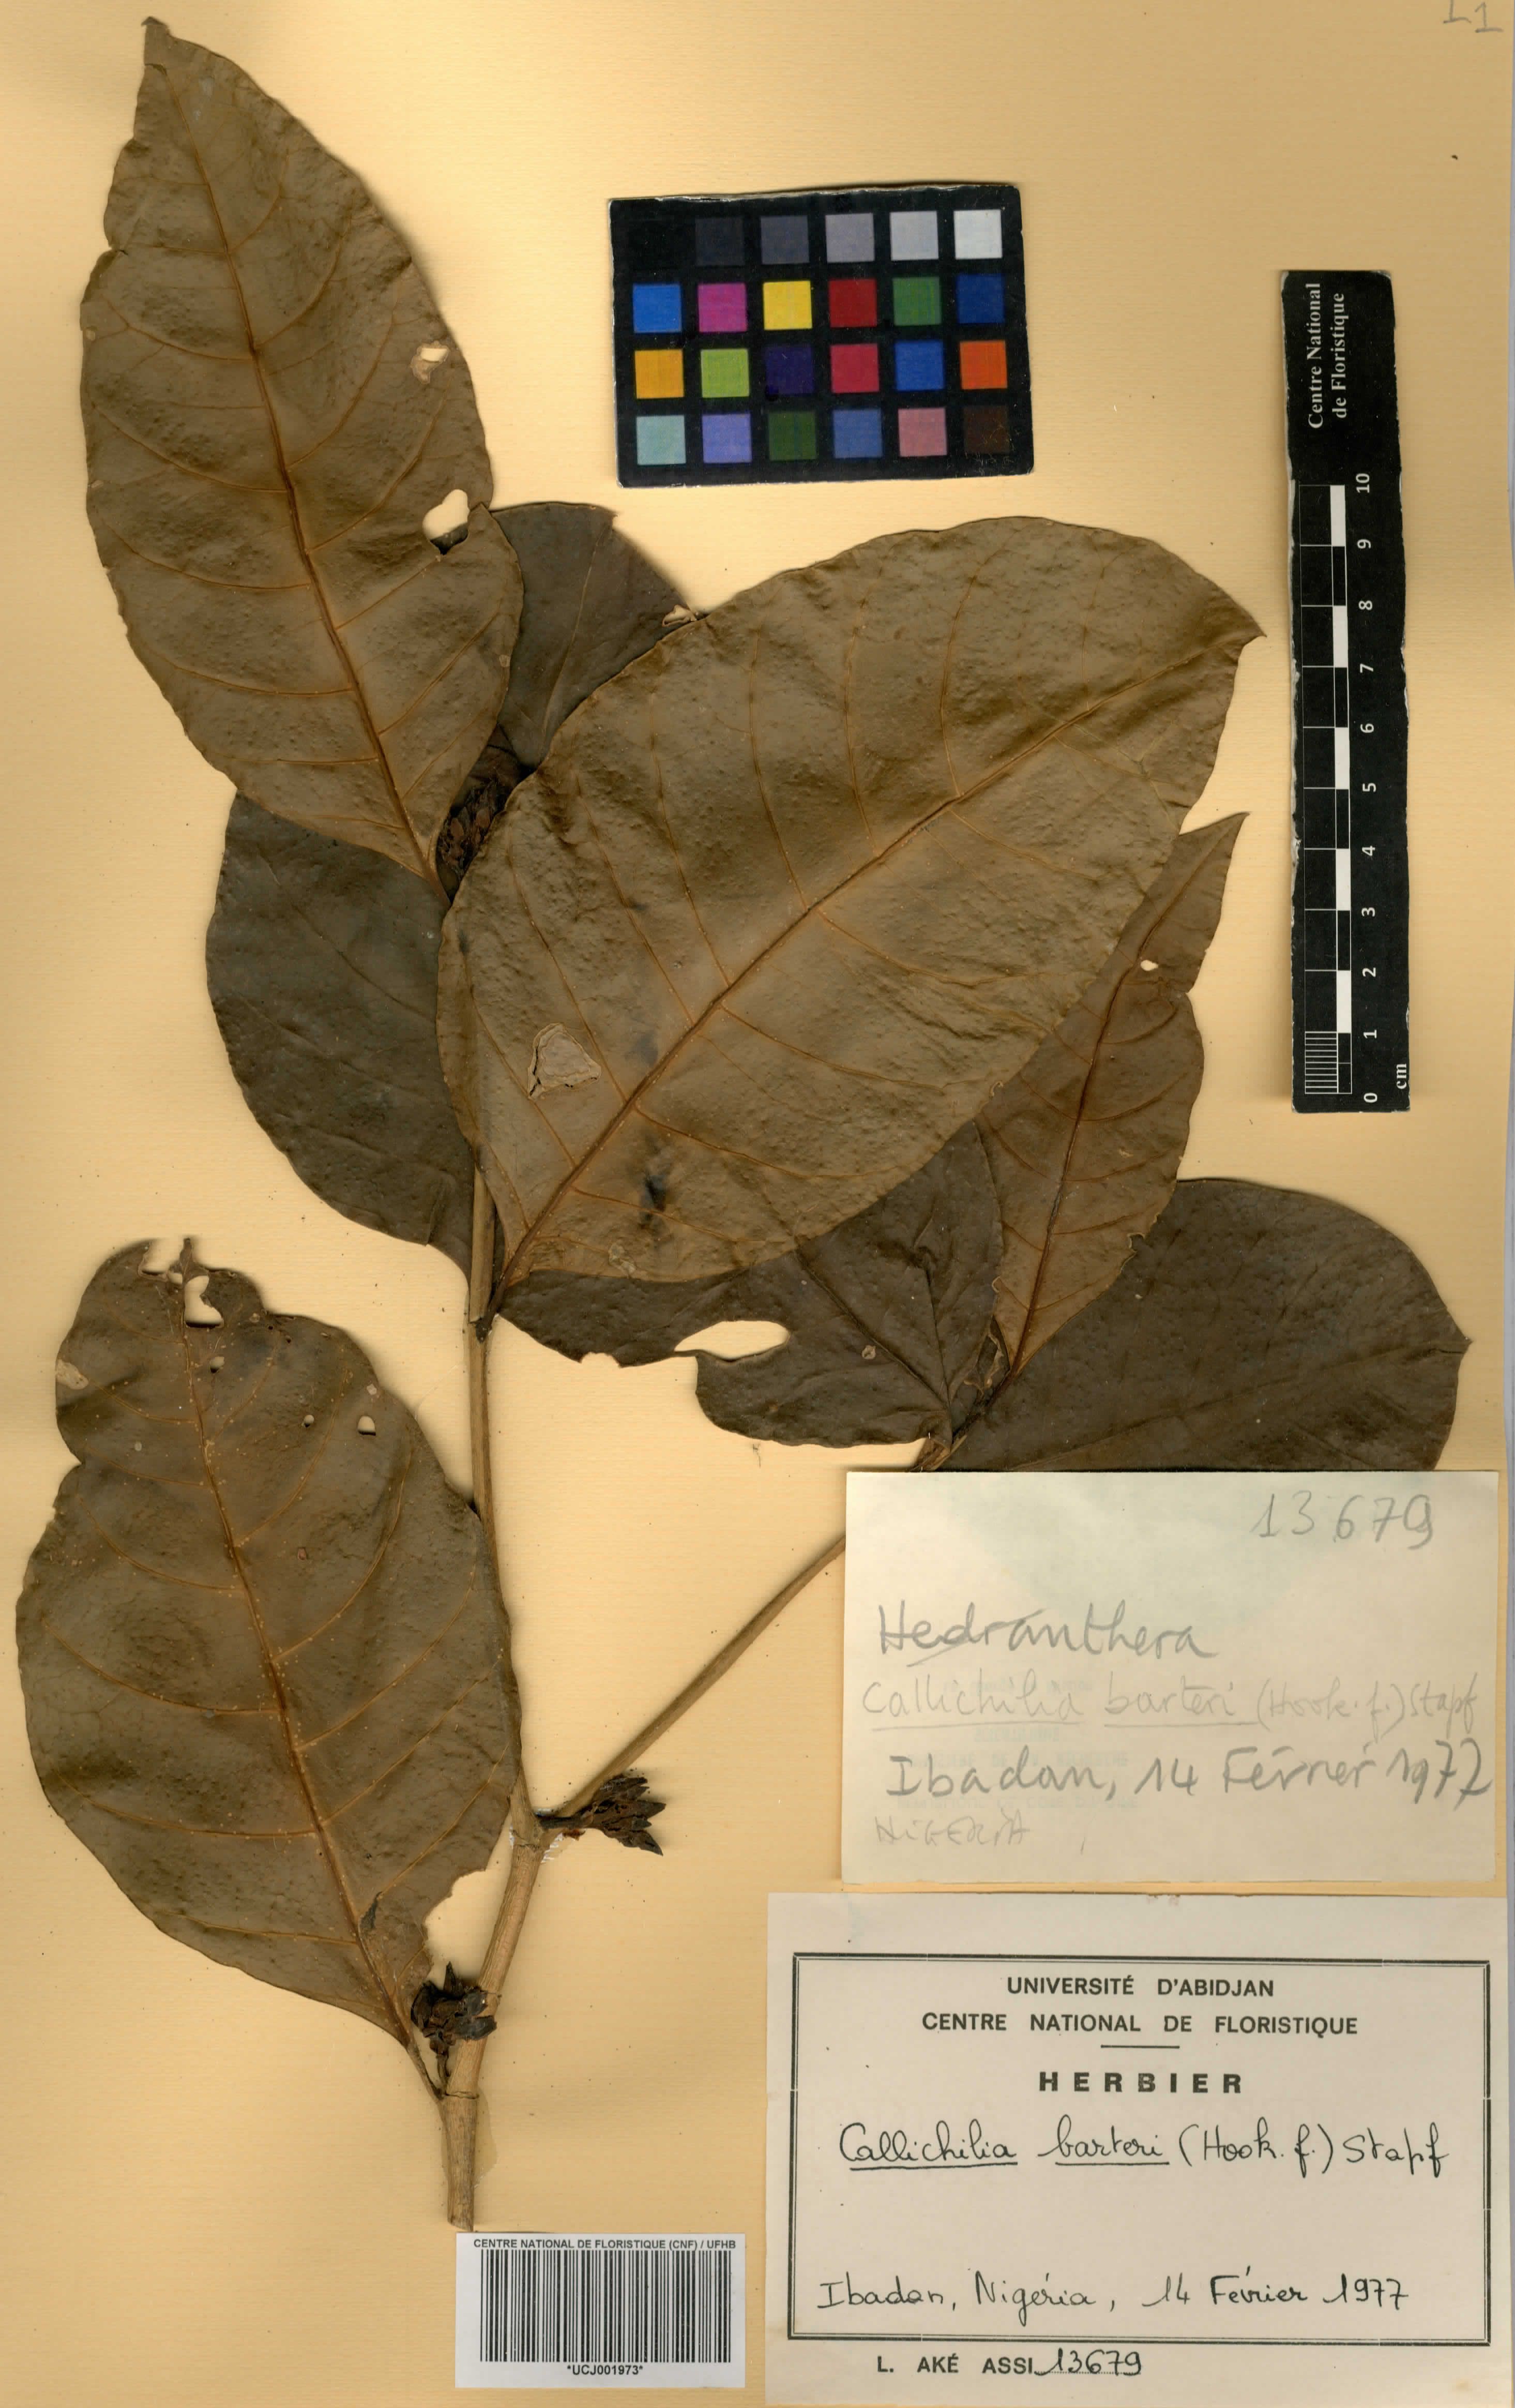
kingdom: Plantae
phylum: Tracheophyta
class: Magnoliopsida
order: Gentianales
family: Apocynaceae
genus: Oncinotis
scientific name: Oncinotis nitida
